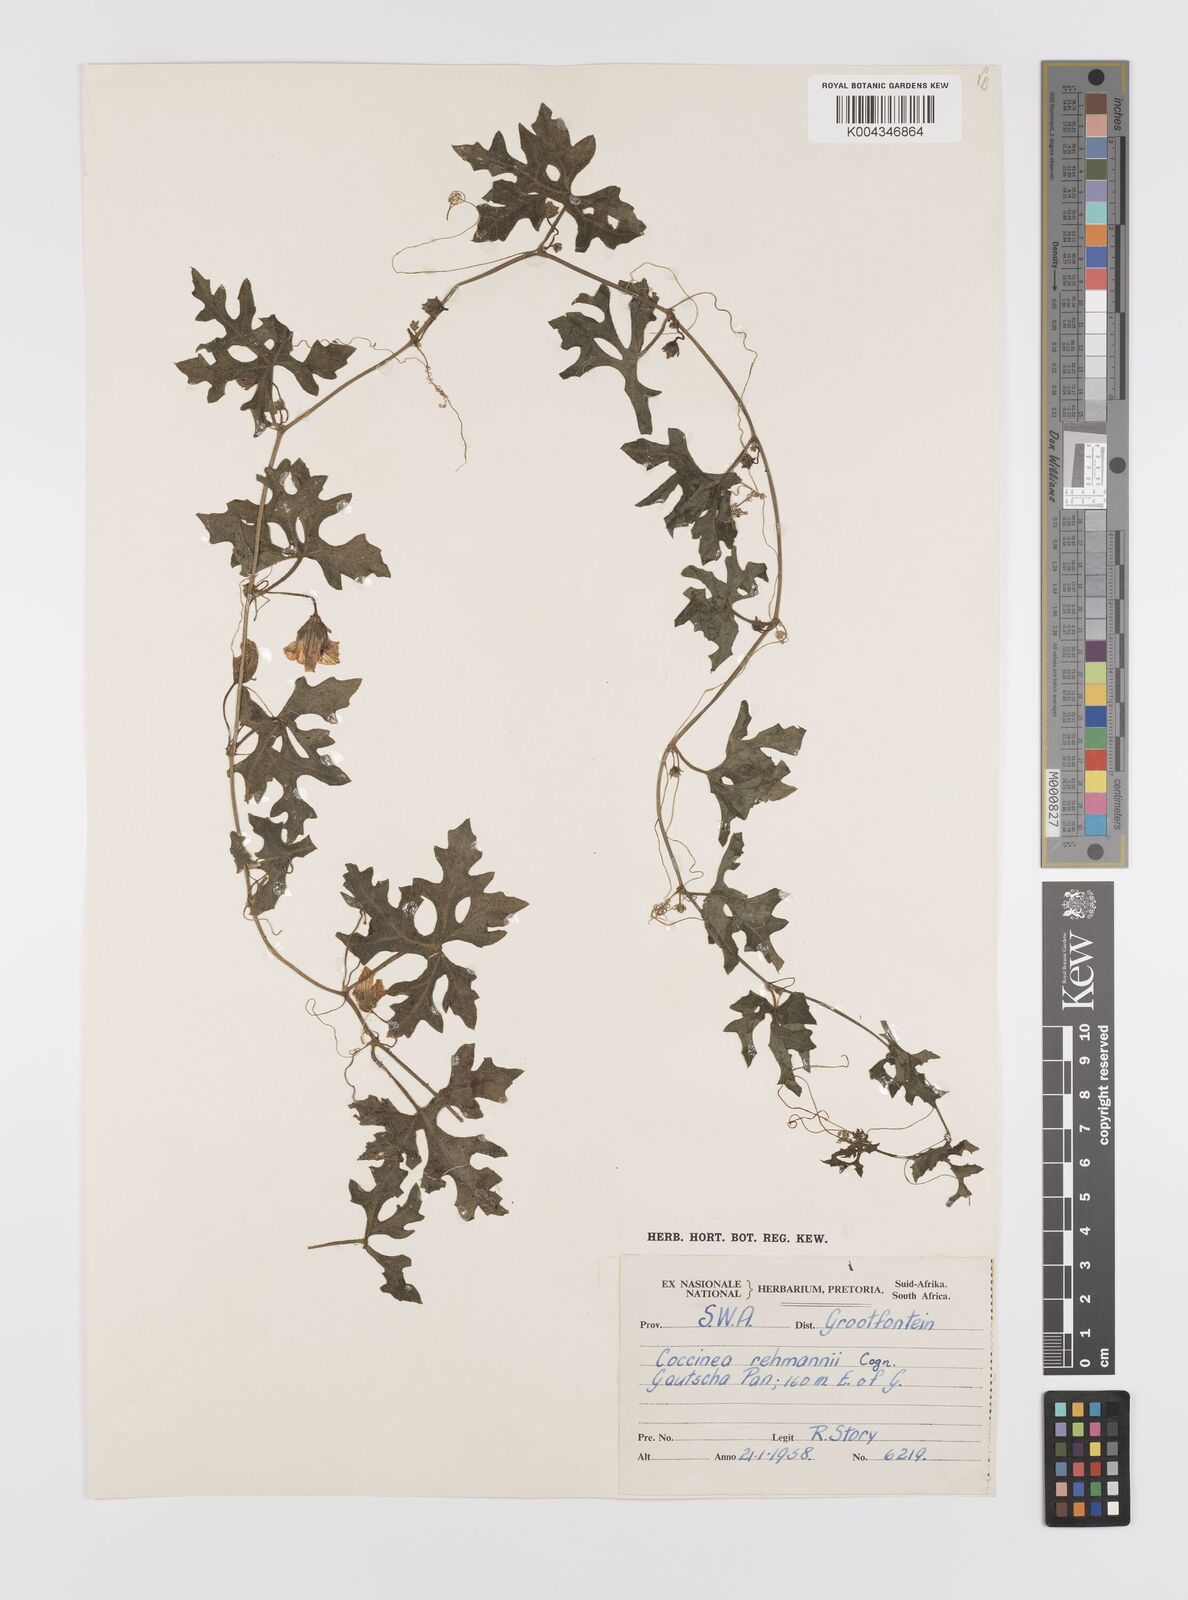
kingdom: Plantae
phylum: Tracheophyta
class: Magnoliopsida
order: Cucurbitales
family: Cucurbitaceae
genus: Coccinia
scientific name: Coccinia rehmannii
